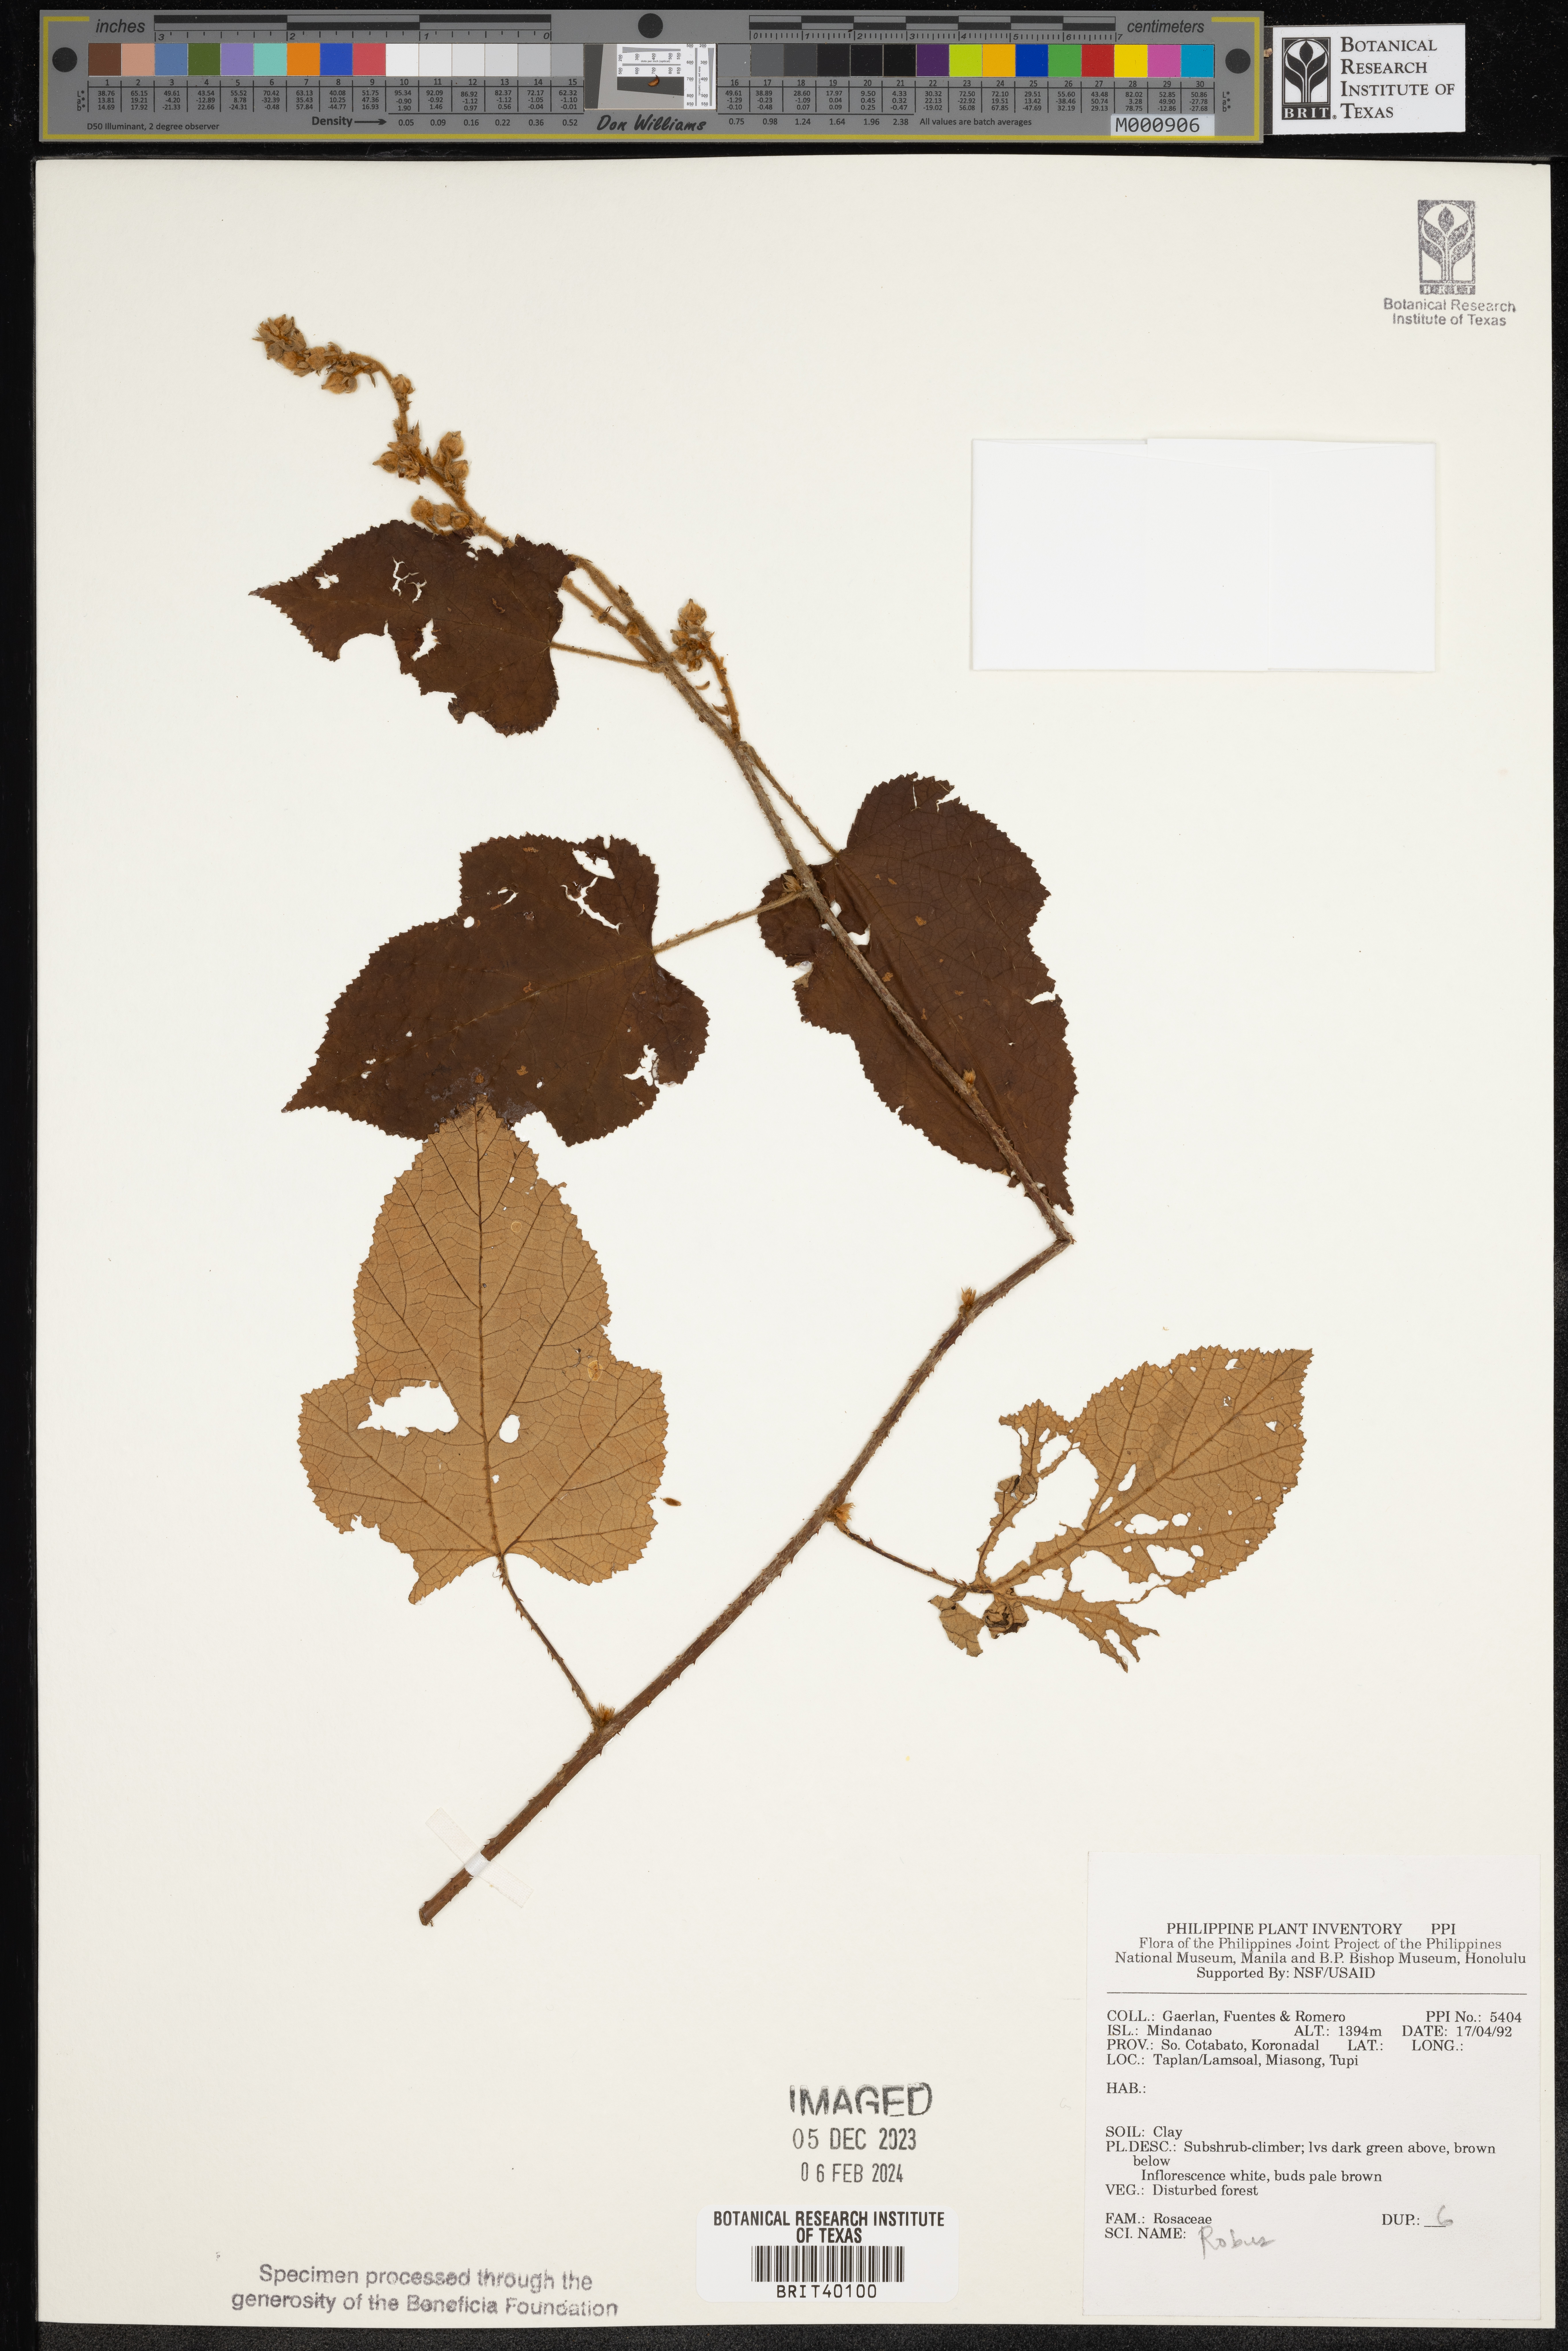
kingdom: Plantae
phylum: Tracheophyta
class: Magnoliopsida
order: Rosales
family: Rosaceae
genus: Rubus
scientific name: Rubus
